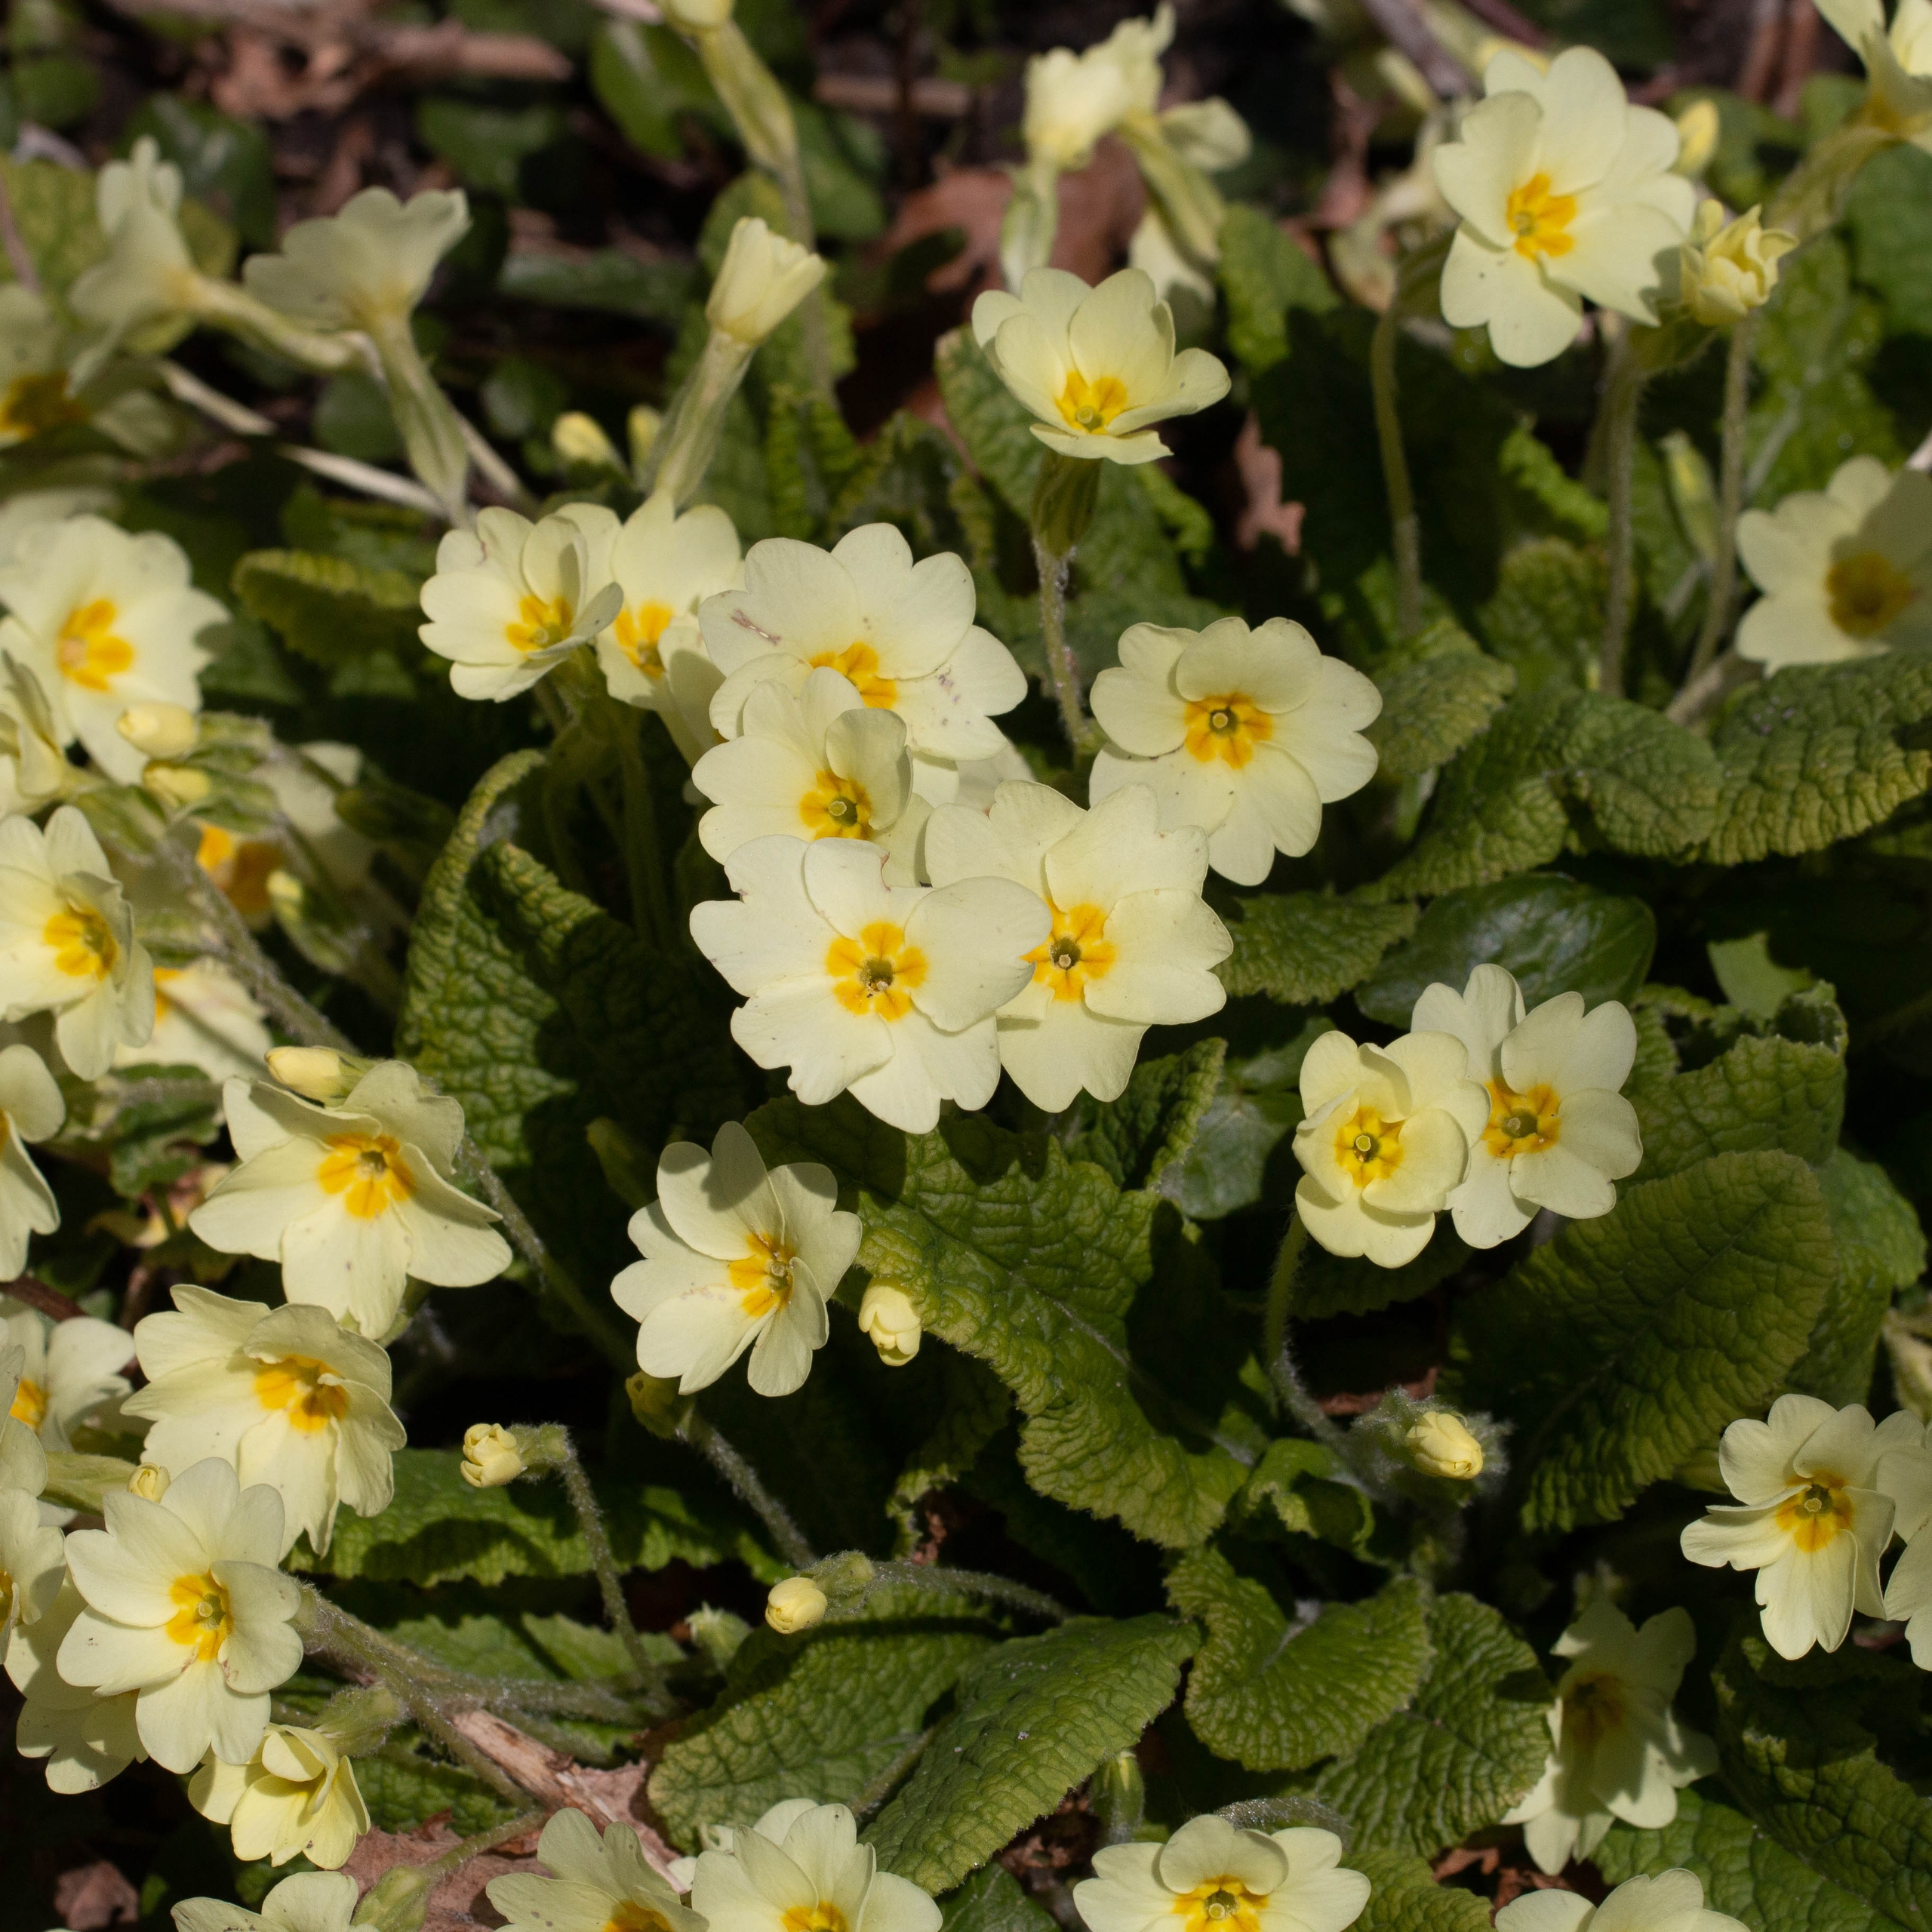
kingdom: Plantae
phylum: Tracheophyta
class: Magnoliopsida
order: Ericales
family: Primulaceae
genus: Primula
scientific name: Primula vulgaris
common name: Storblomstret kodriver
